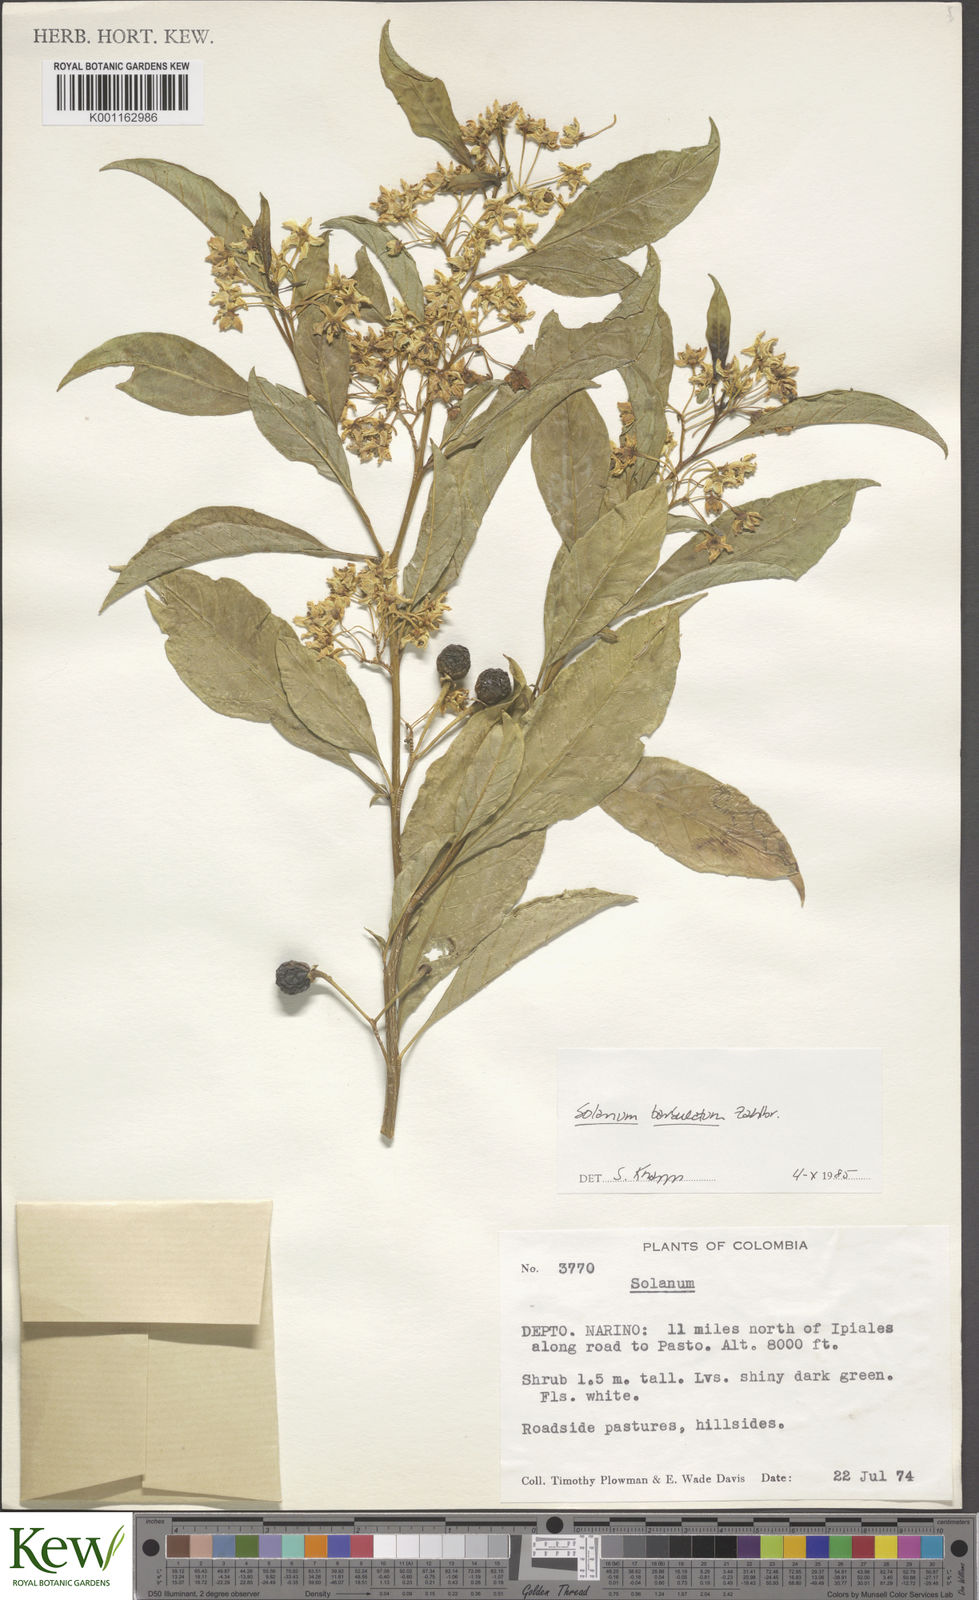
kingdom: Plantae
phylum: Tracheophyta
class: Magnoliopsida
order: Solanales
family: Solanaceae
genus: Solanum
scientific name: Solanum barbulatum
